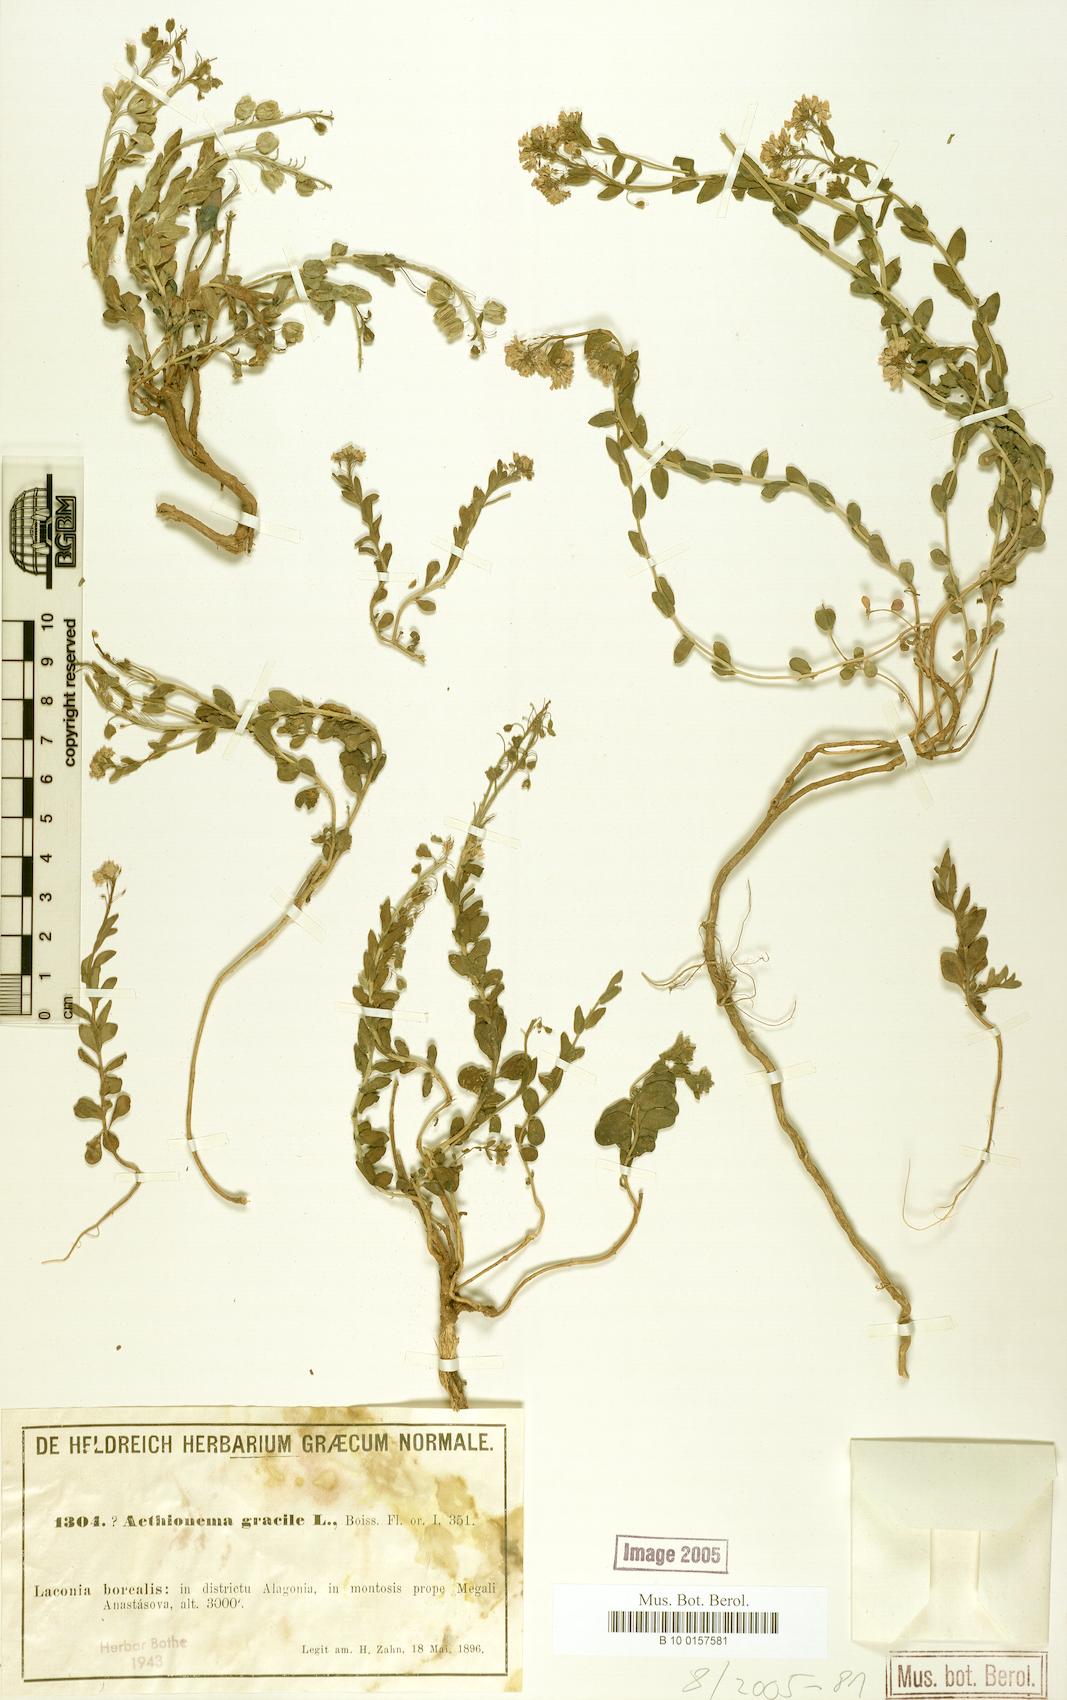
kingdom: Plantae
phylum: Tracheophyta
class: Magnoliopsida
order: Brassicales
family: Brassicaceae
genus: Aethionema
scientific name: Aethionema saxatile
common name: Burnt candytuft
